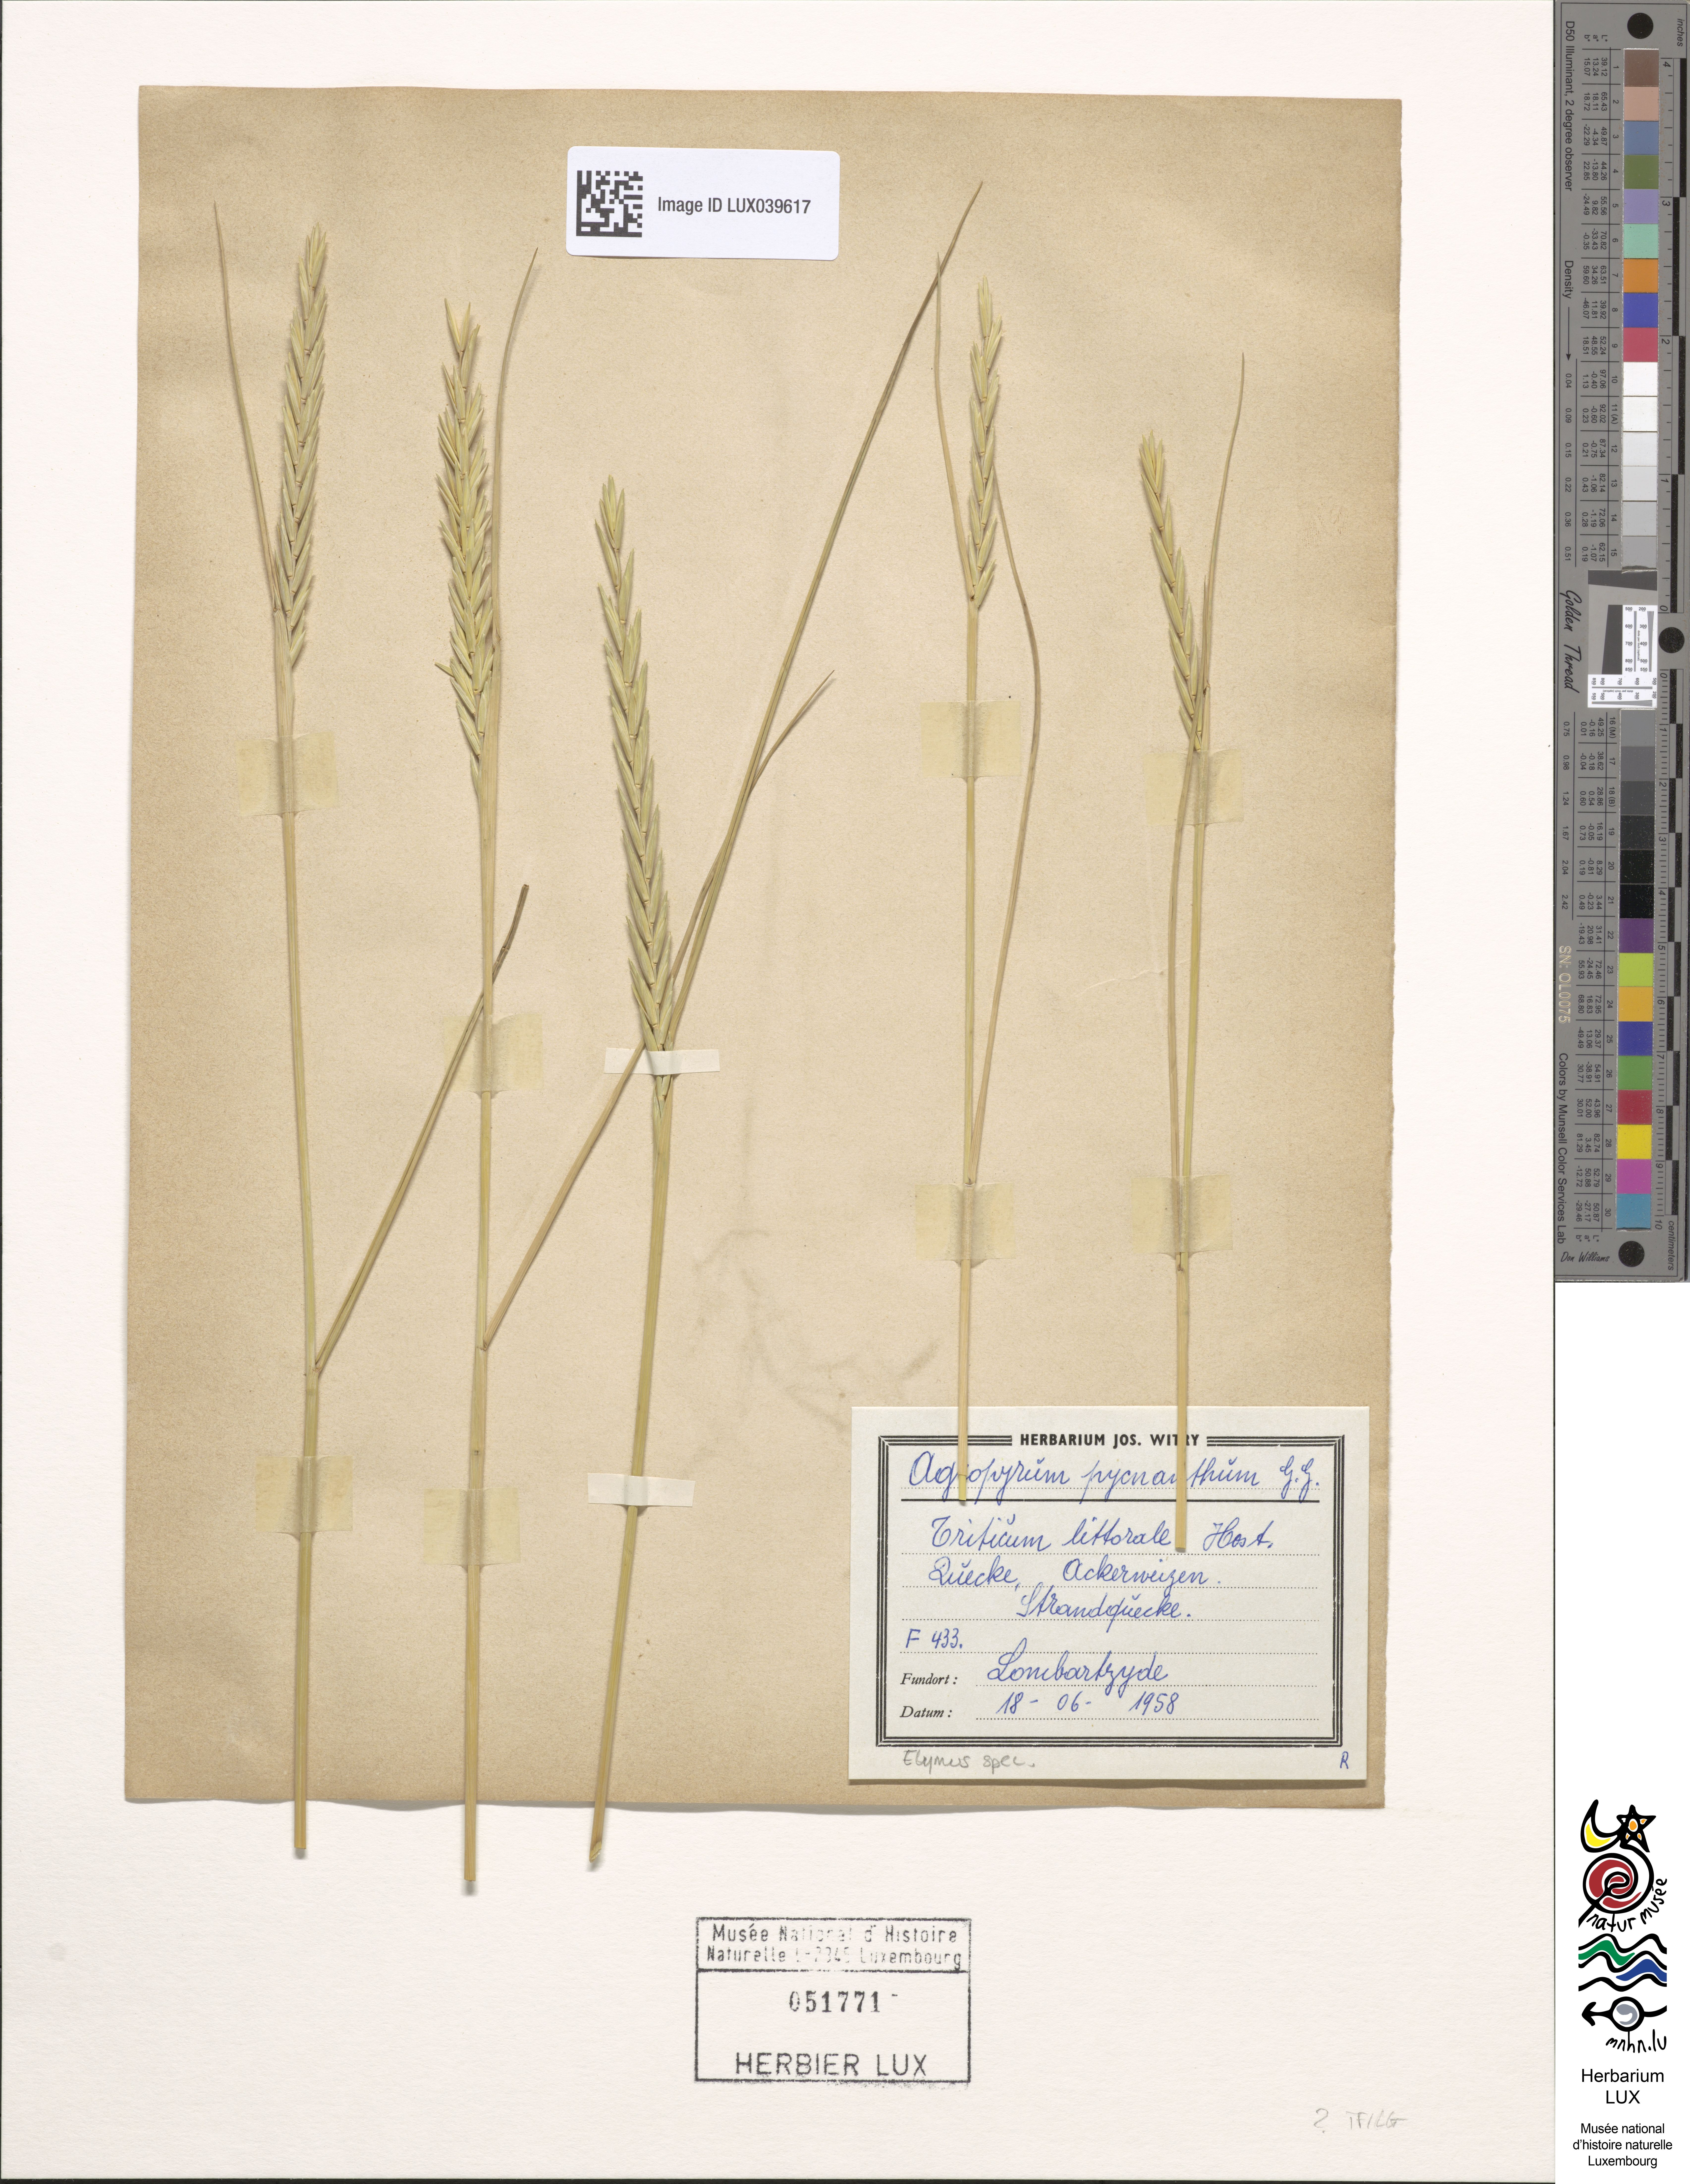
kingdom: Plantae
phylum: Tracheophyta
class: Liliopsida
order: Poales
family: Poaceae
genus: Elymus
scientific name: Elymus
